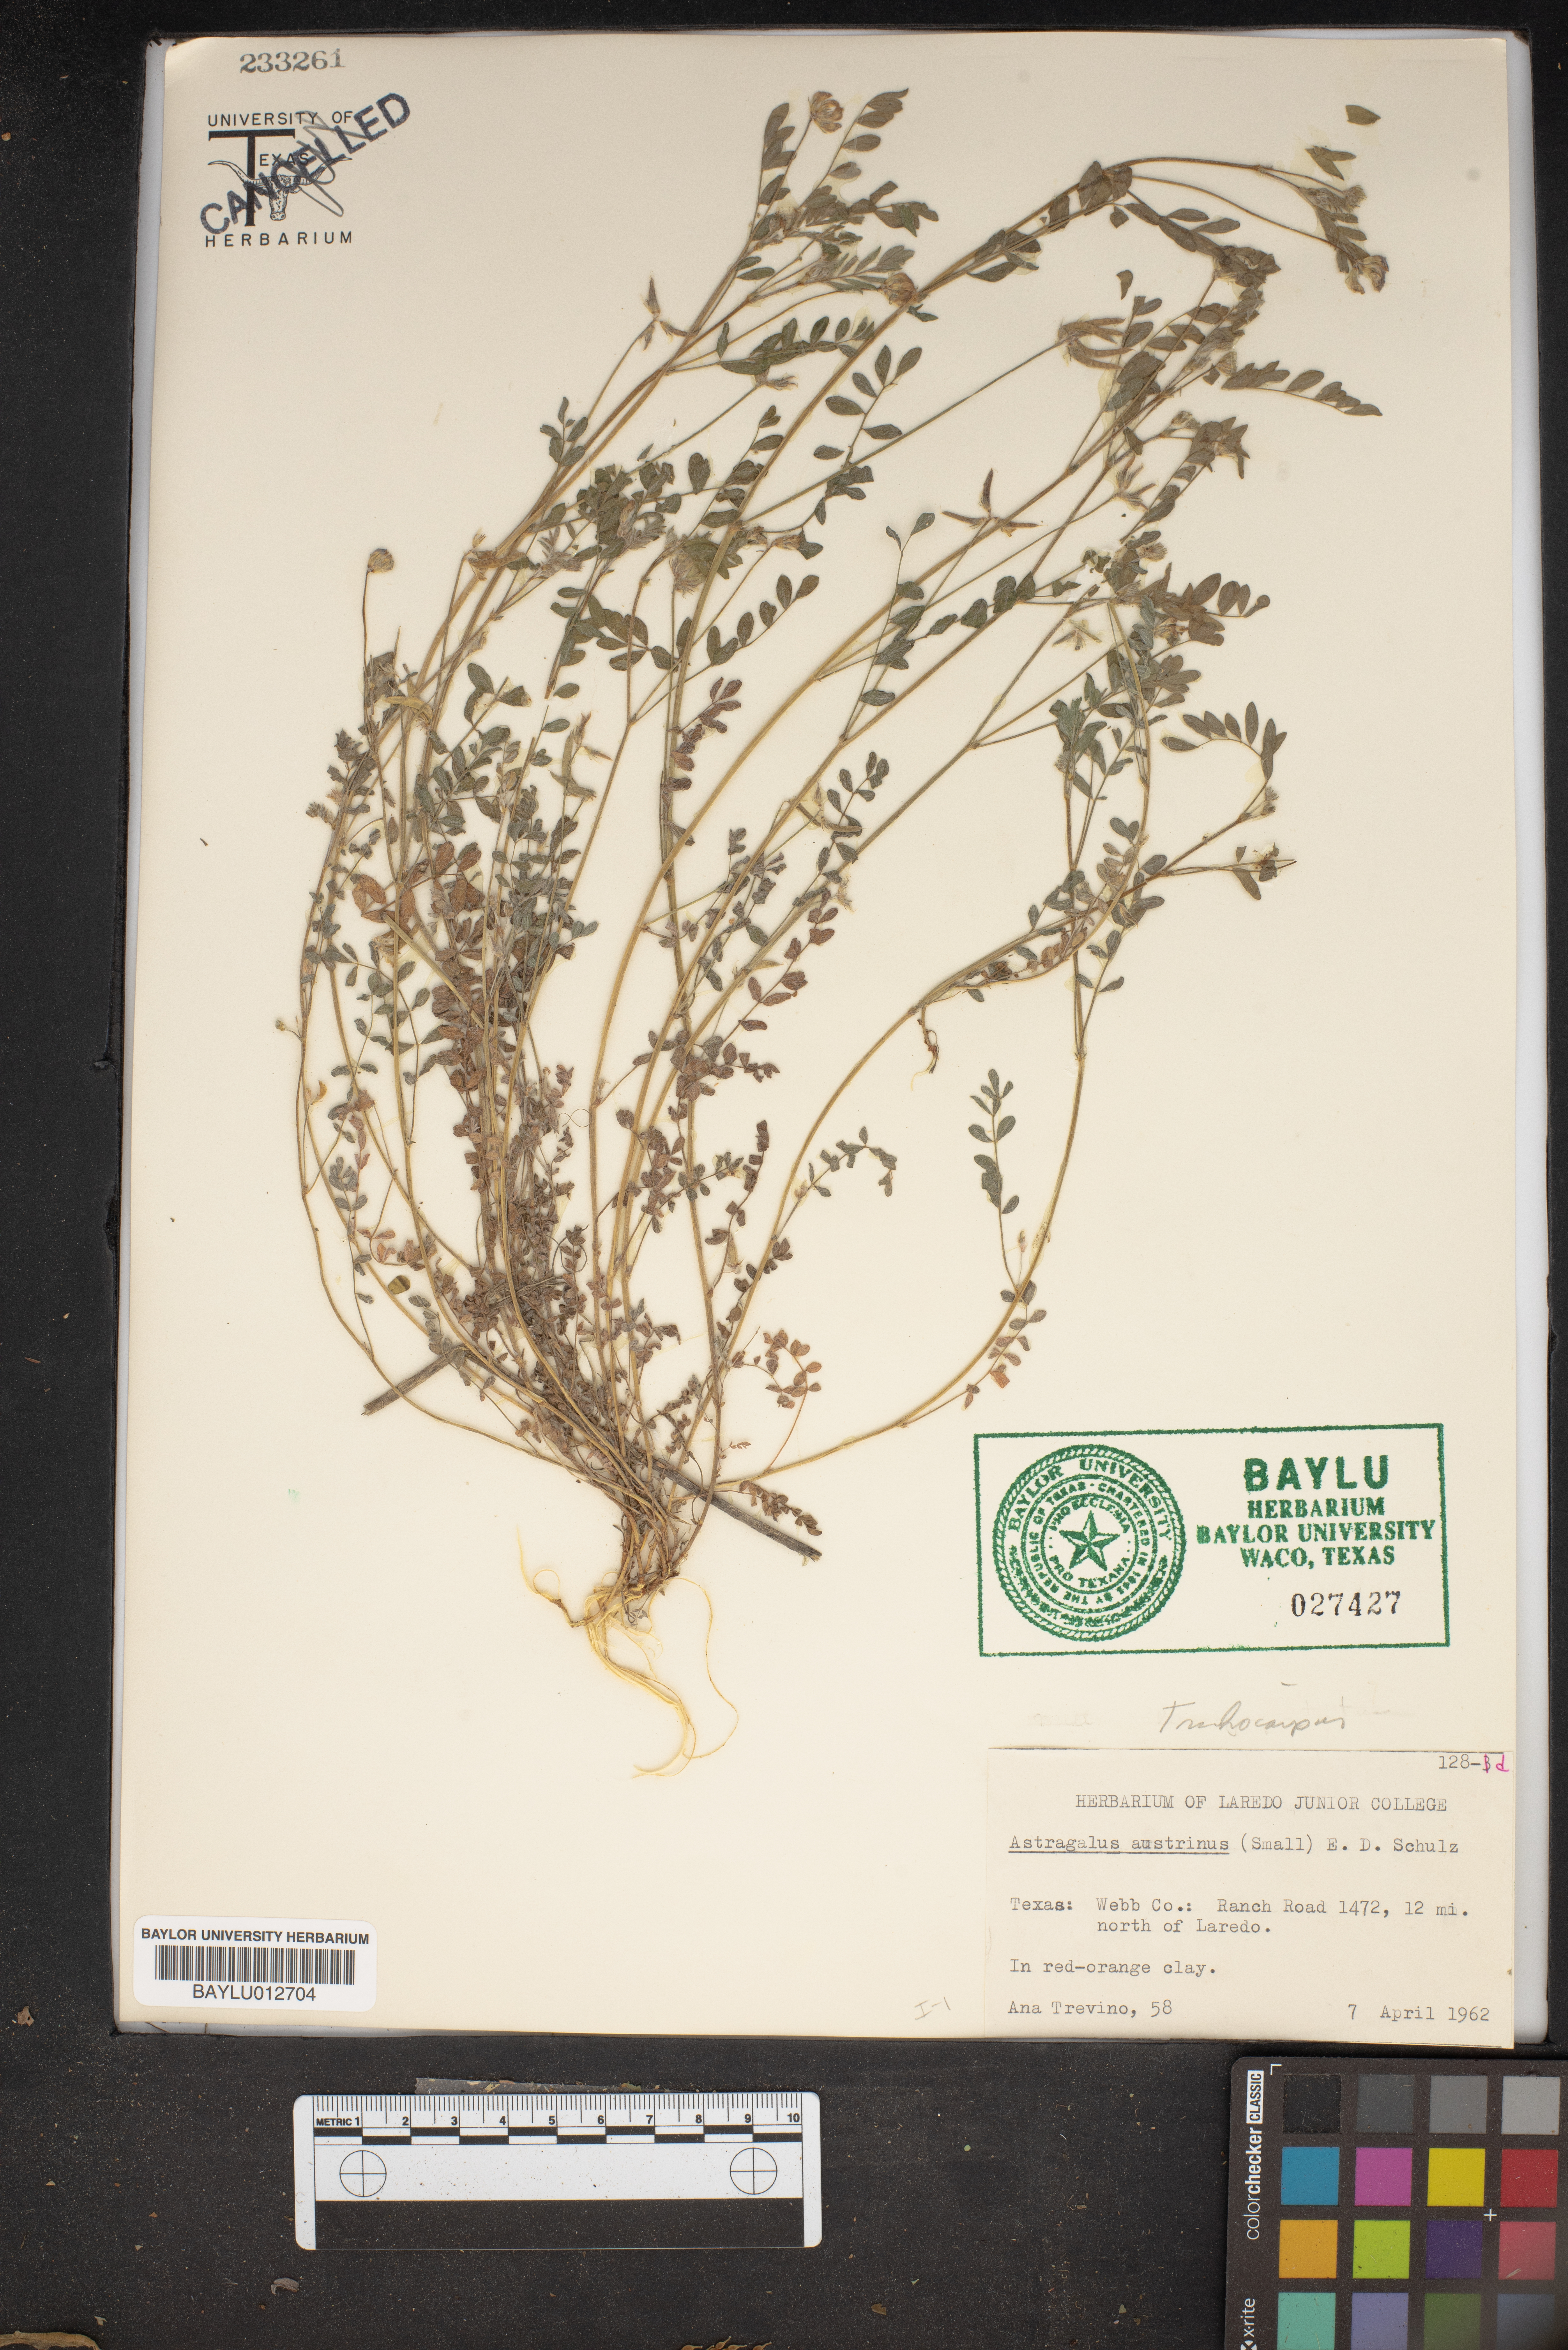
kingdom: Plantae
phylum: Tracheophyta
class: Magnoliopsida
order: Fabales
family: Fabaceae
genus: Astragalus
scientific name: Astragalus nuttallianus
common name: Smallflowered milkvetch
